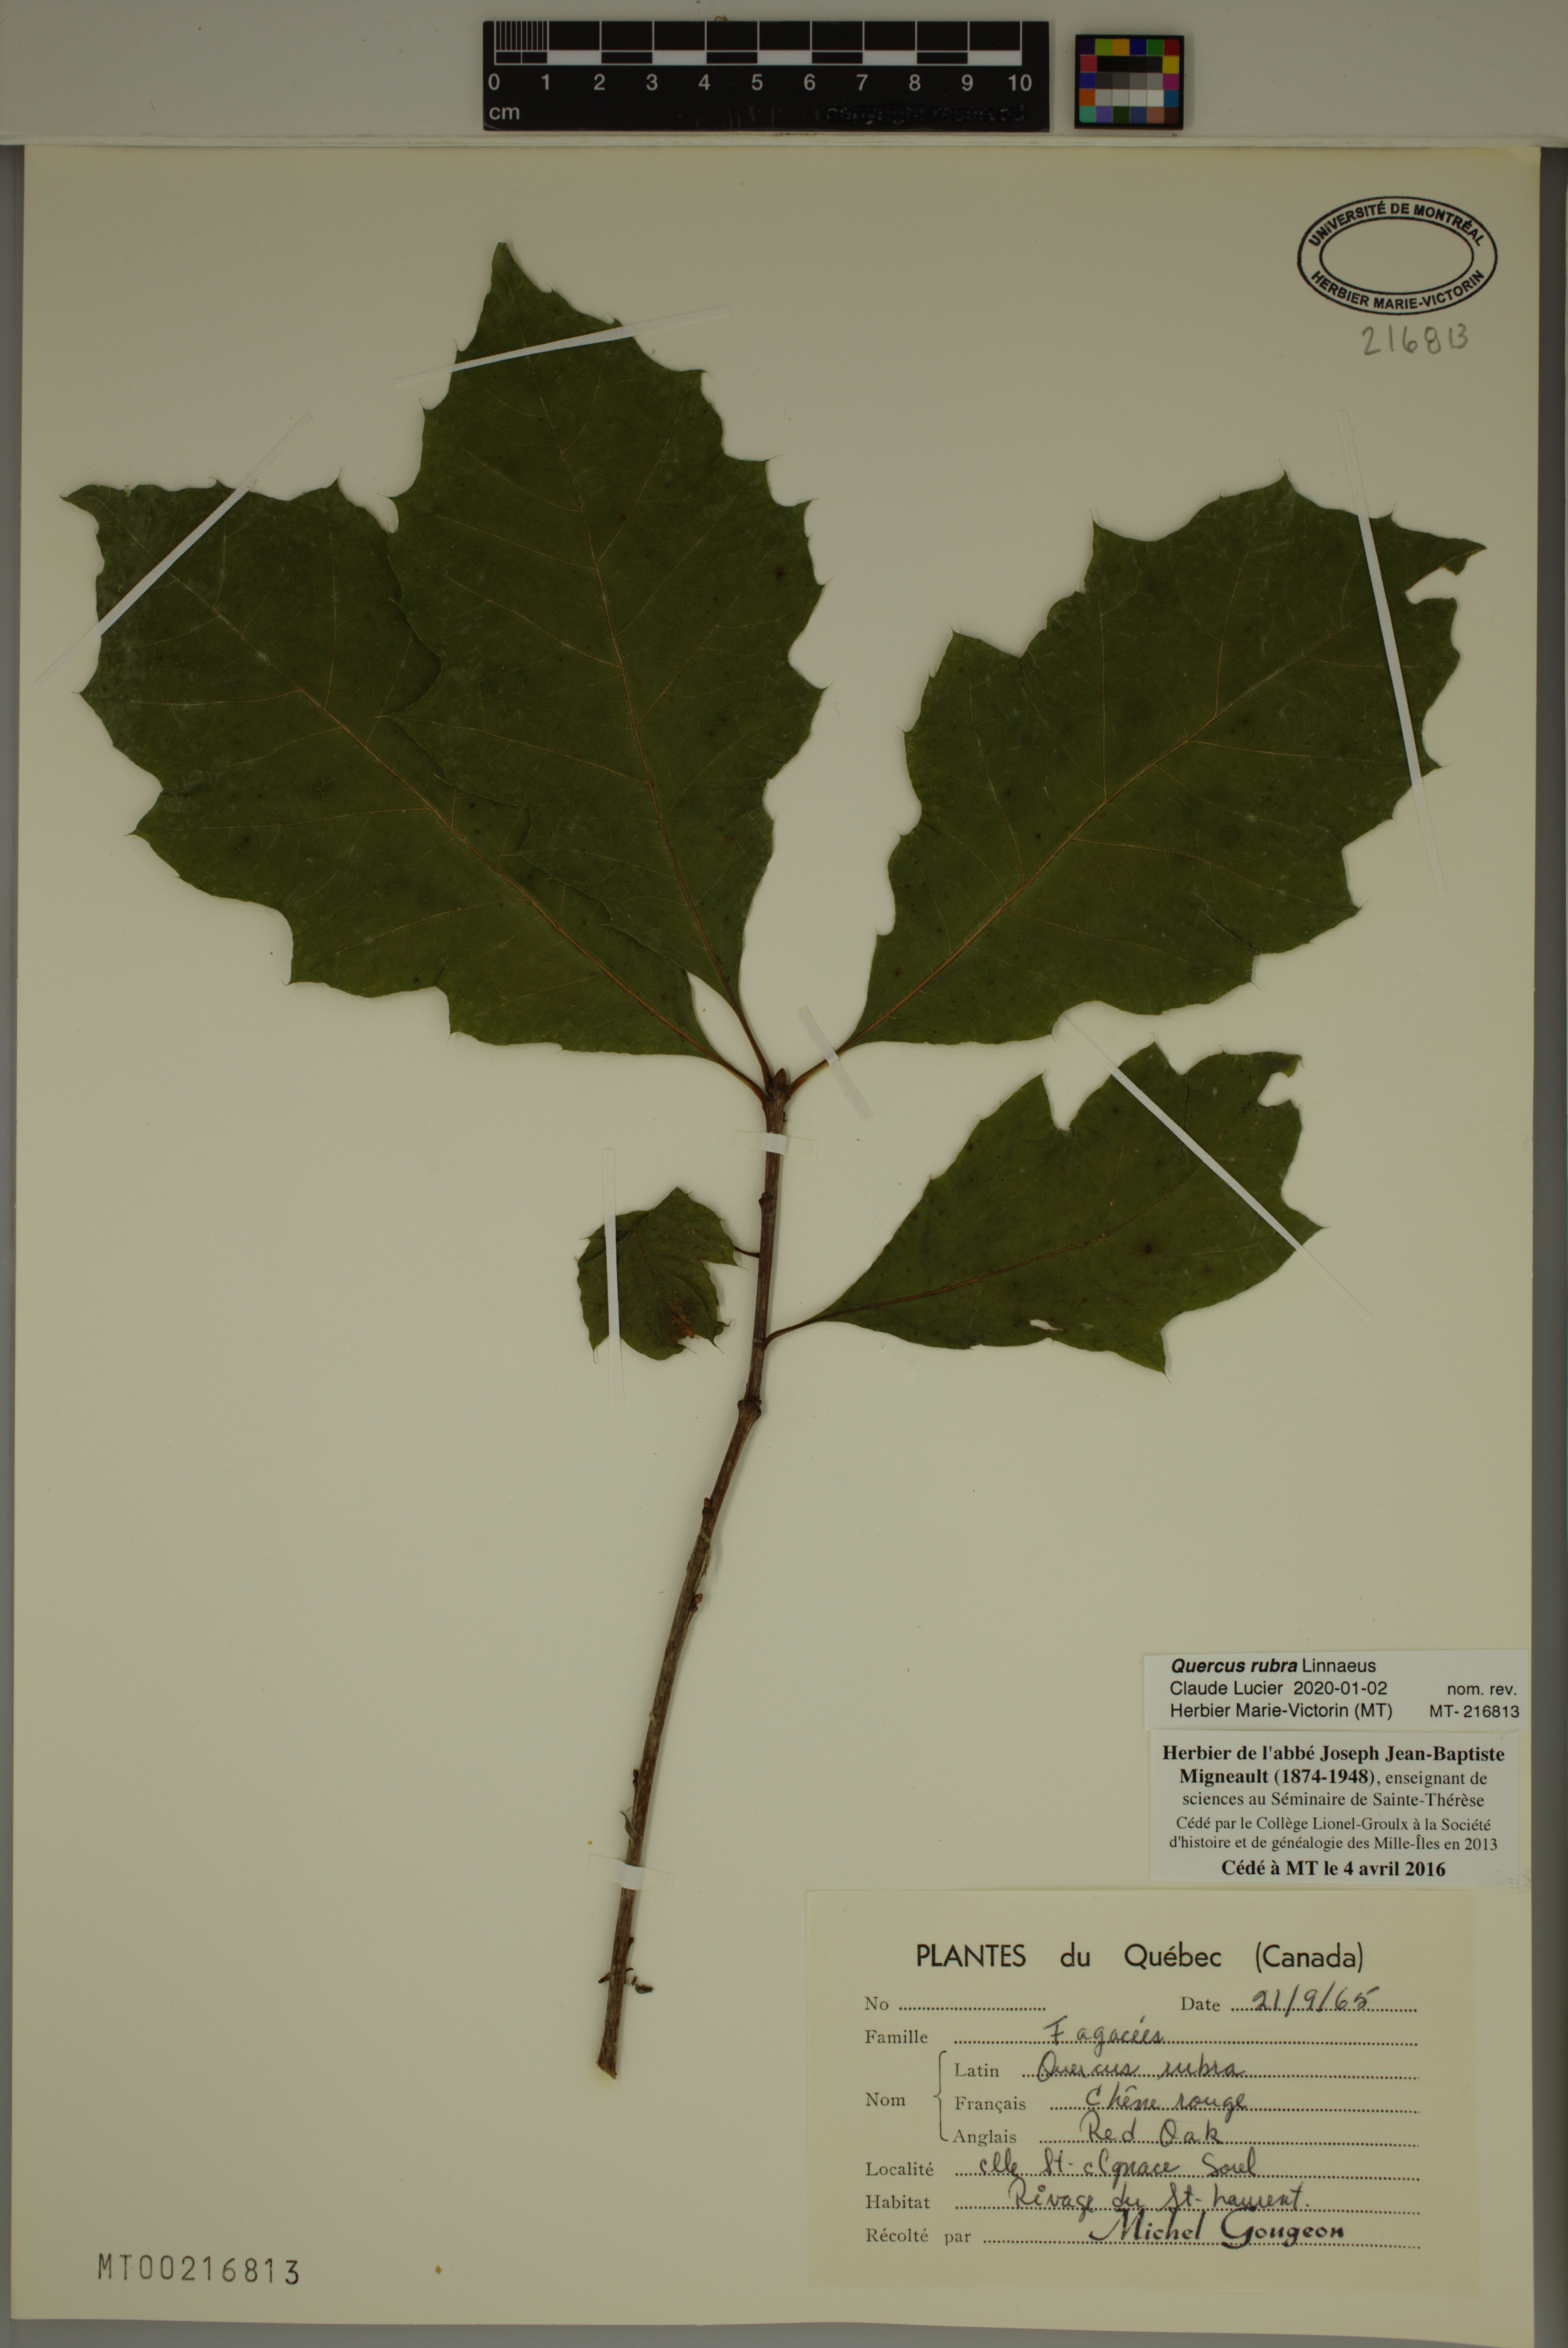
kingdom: Plantae
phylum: Tracheophyta
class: Magnoliopsida
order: Fagales
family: Fagaceae
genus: Quercus
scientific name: Quercus rubra
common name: Red oak
